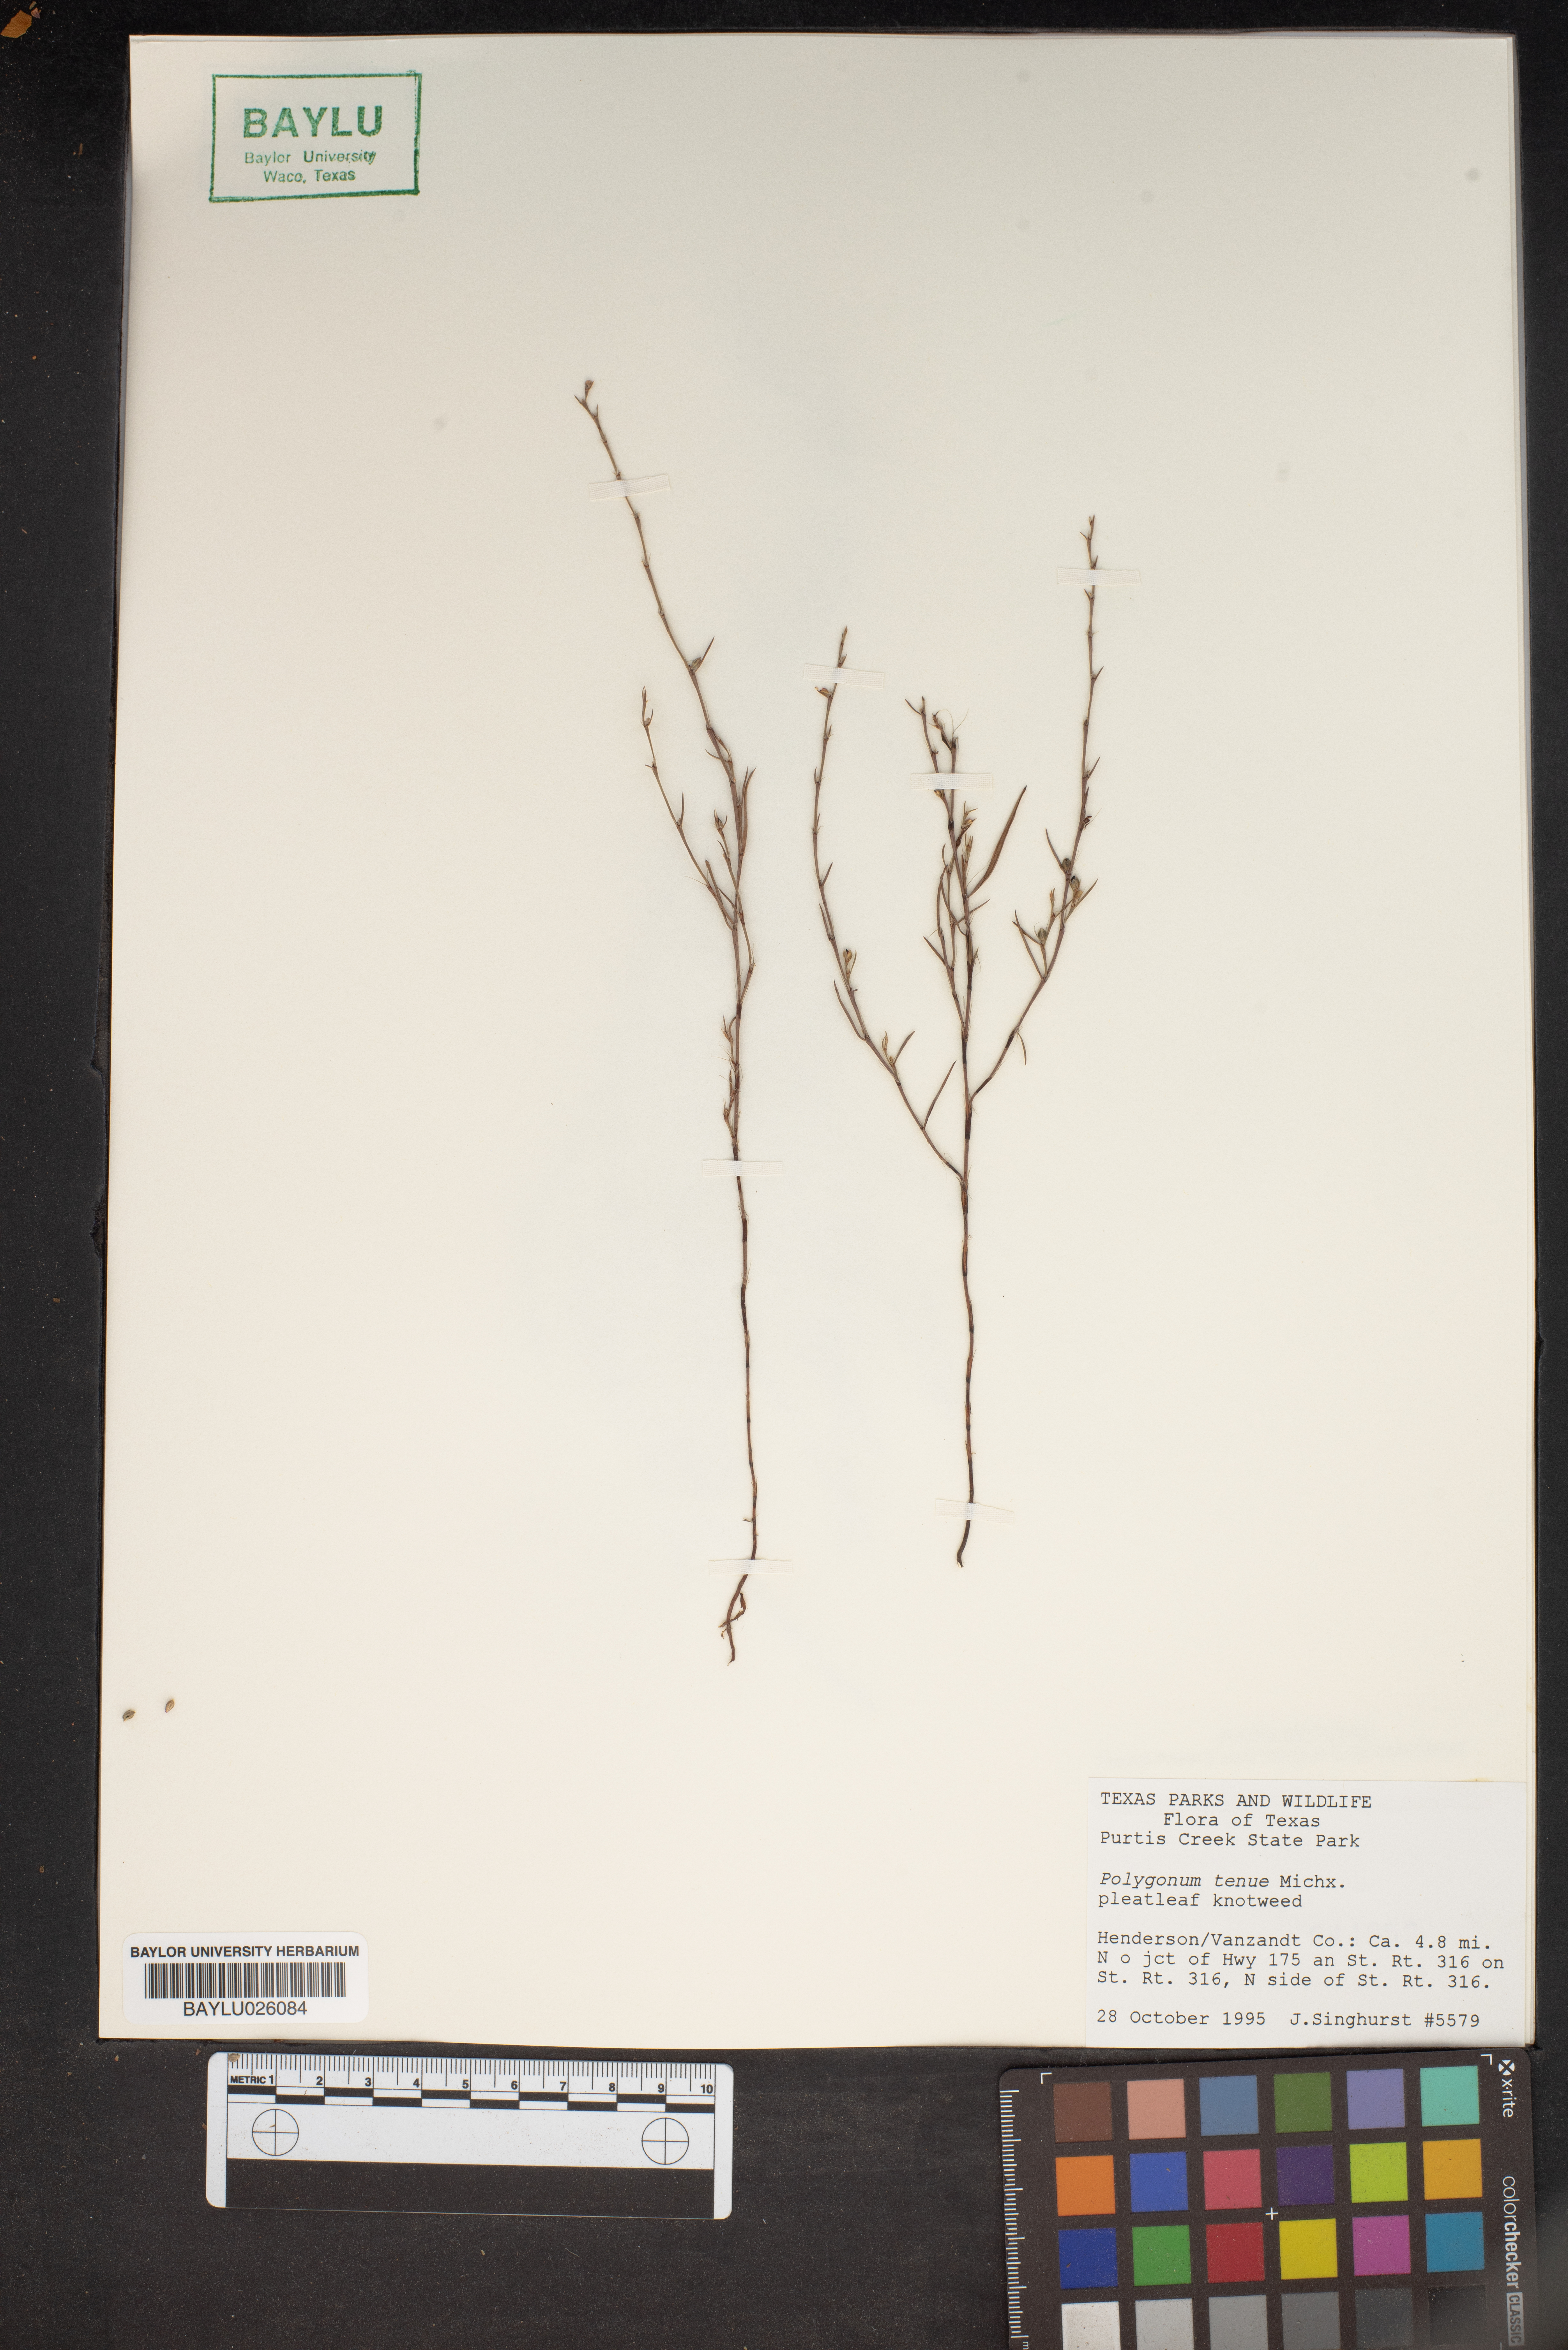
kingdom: Plantae
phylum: Tracheophyta
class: Magnoliopsida
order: Caryophyllales
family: Polygonaceae
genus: Polygonum
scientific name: Polygonum tenue
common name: Pleat-leaved knotweed
